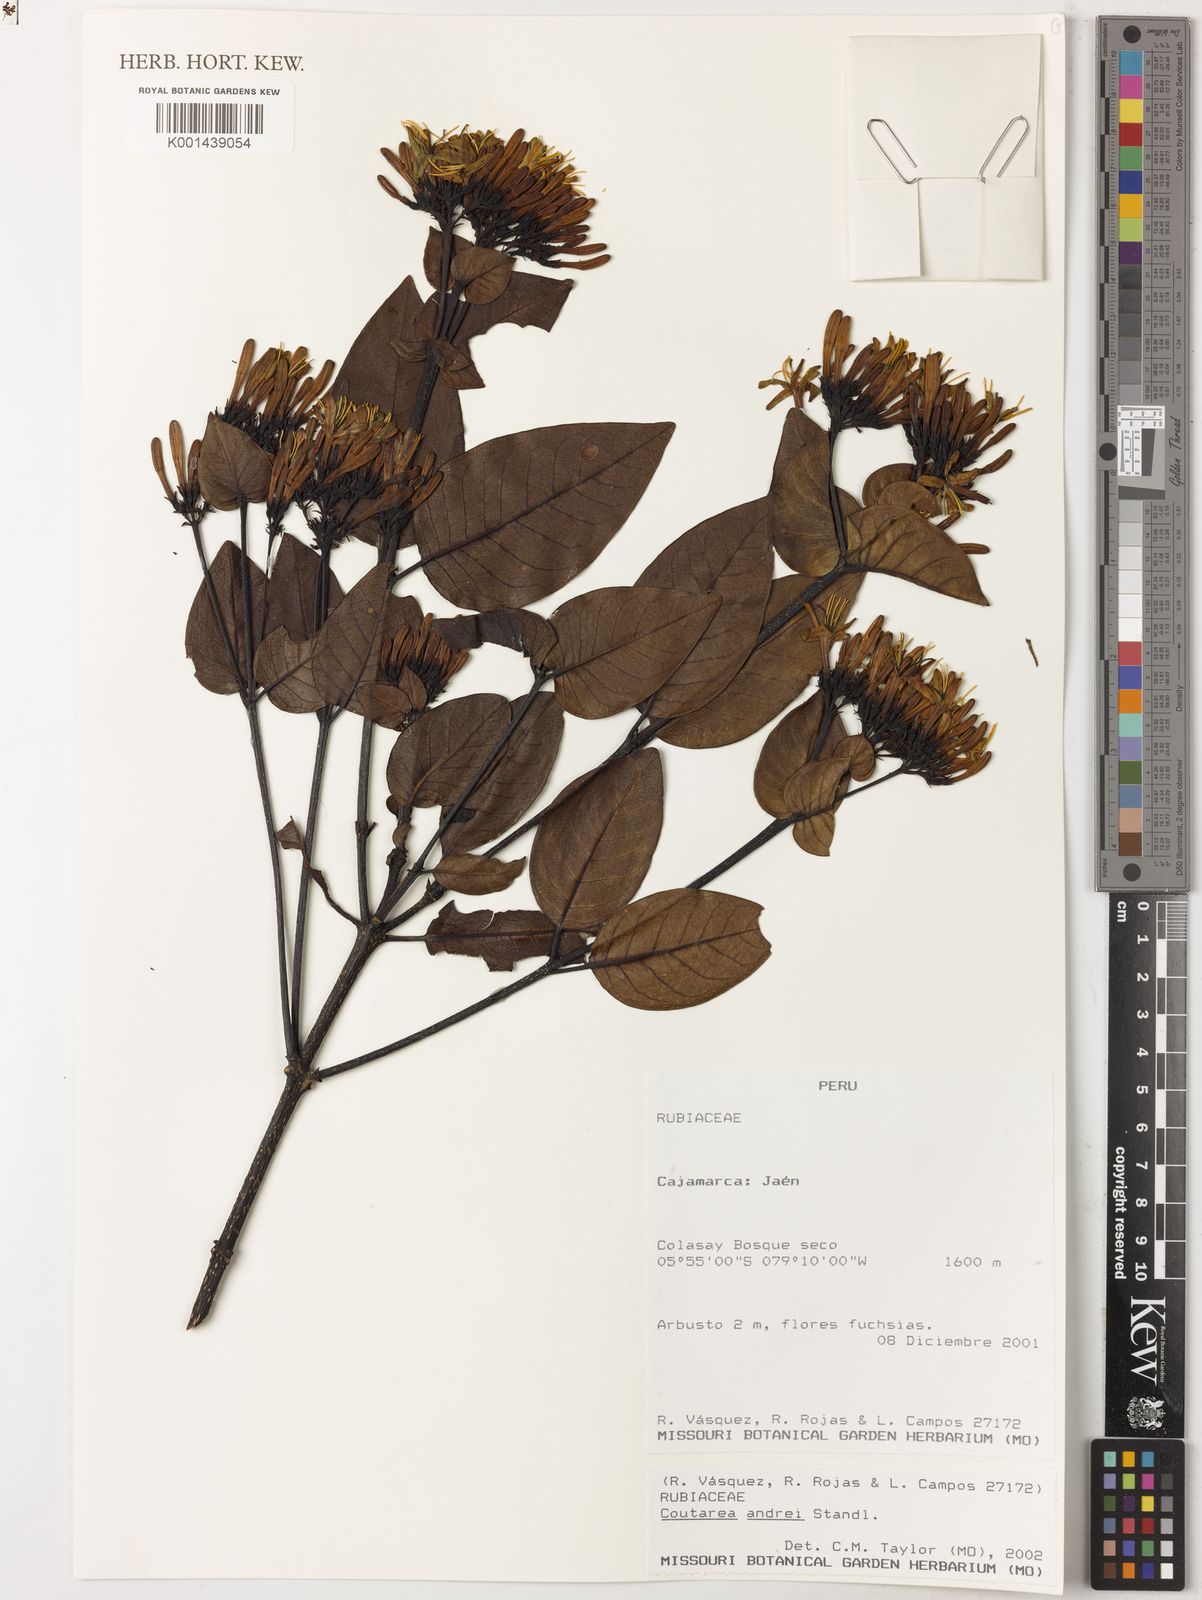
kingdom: Plantae
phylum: Tracheophyta
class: Magnoliopsida
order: Gentianales
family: Rubiaceae
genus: Coutareopsis
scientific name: Coutareopsis andrei
